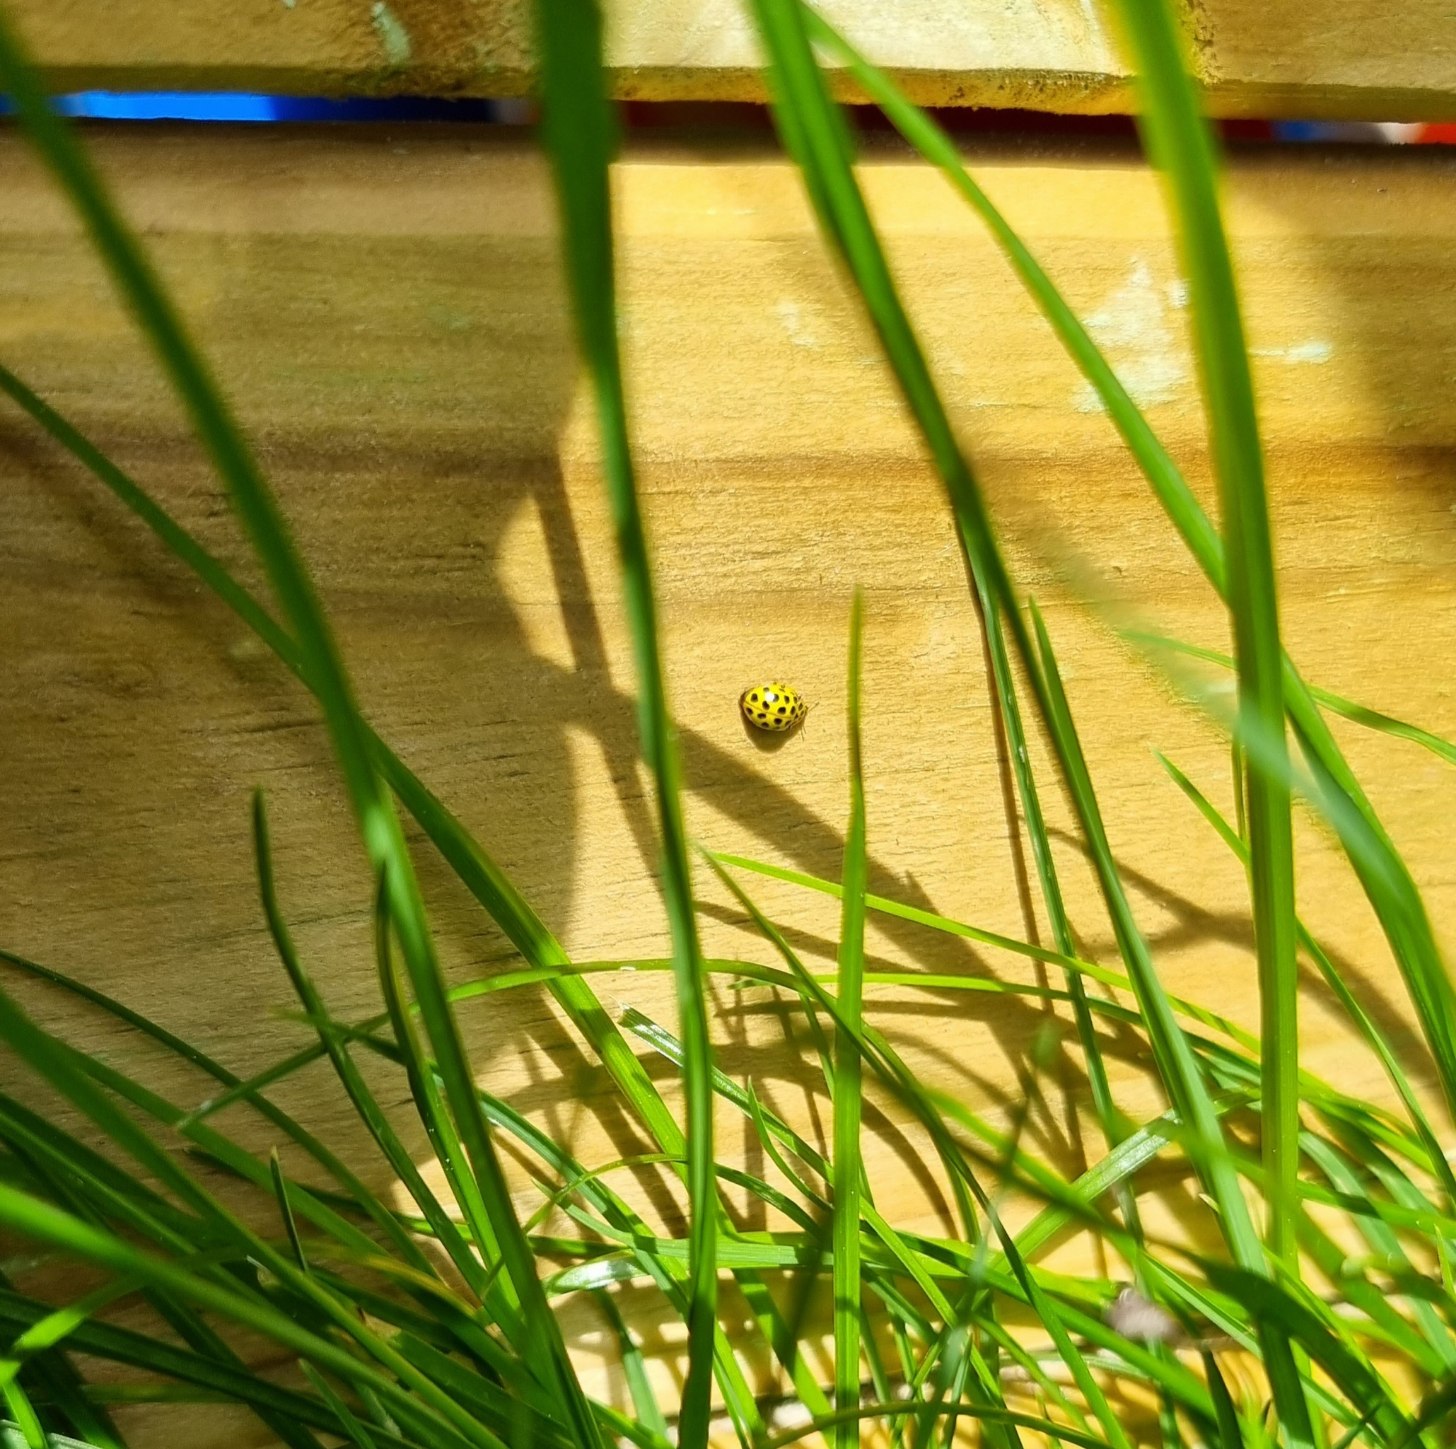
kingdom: Animalia
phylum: Arthropoda
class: Insecta
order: Coleoptera
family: Coccinellidae
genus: Psyllobora
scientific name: Psyllobora vigintiduopunctata
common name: Toogtyveplettet mariehøne
